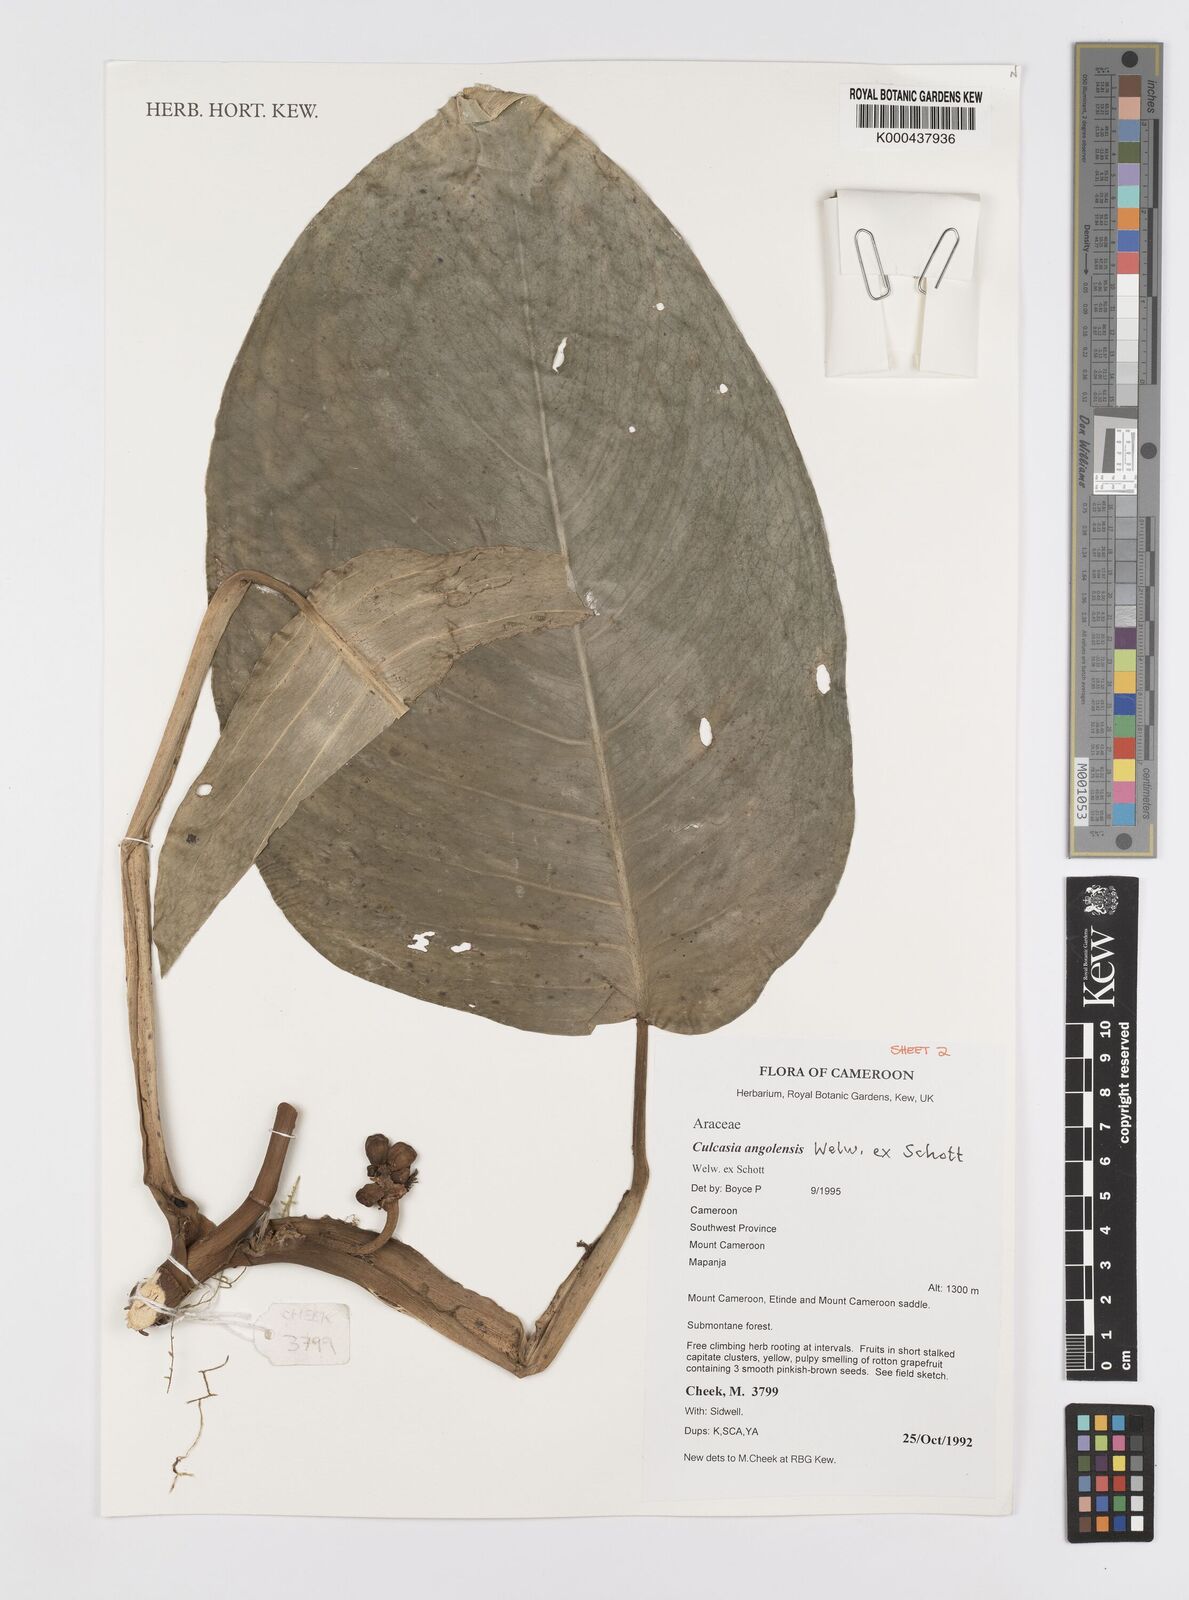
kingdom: Plantae
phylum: Tracheophyta
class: Liliopsida
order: Alismatales
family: Araceae
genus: Culcasia
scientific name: Culcasia angolensis
